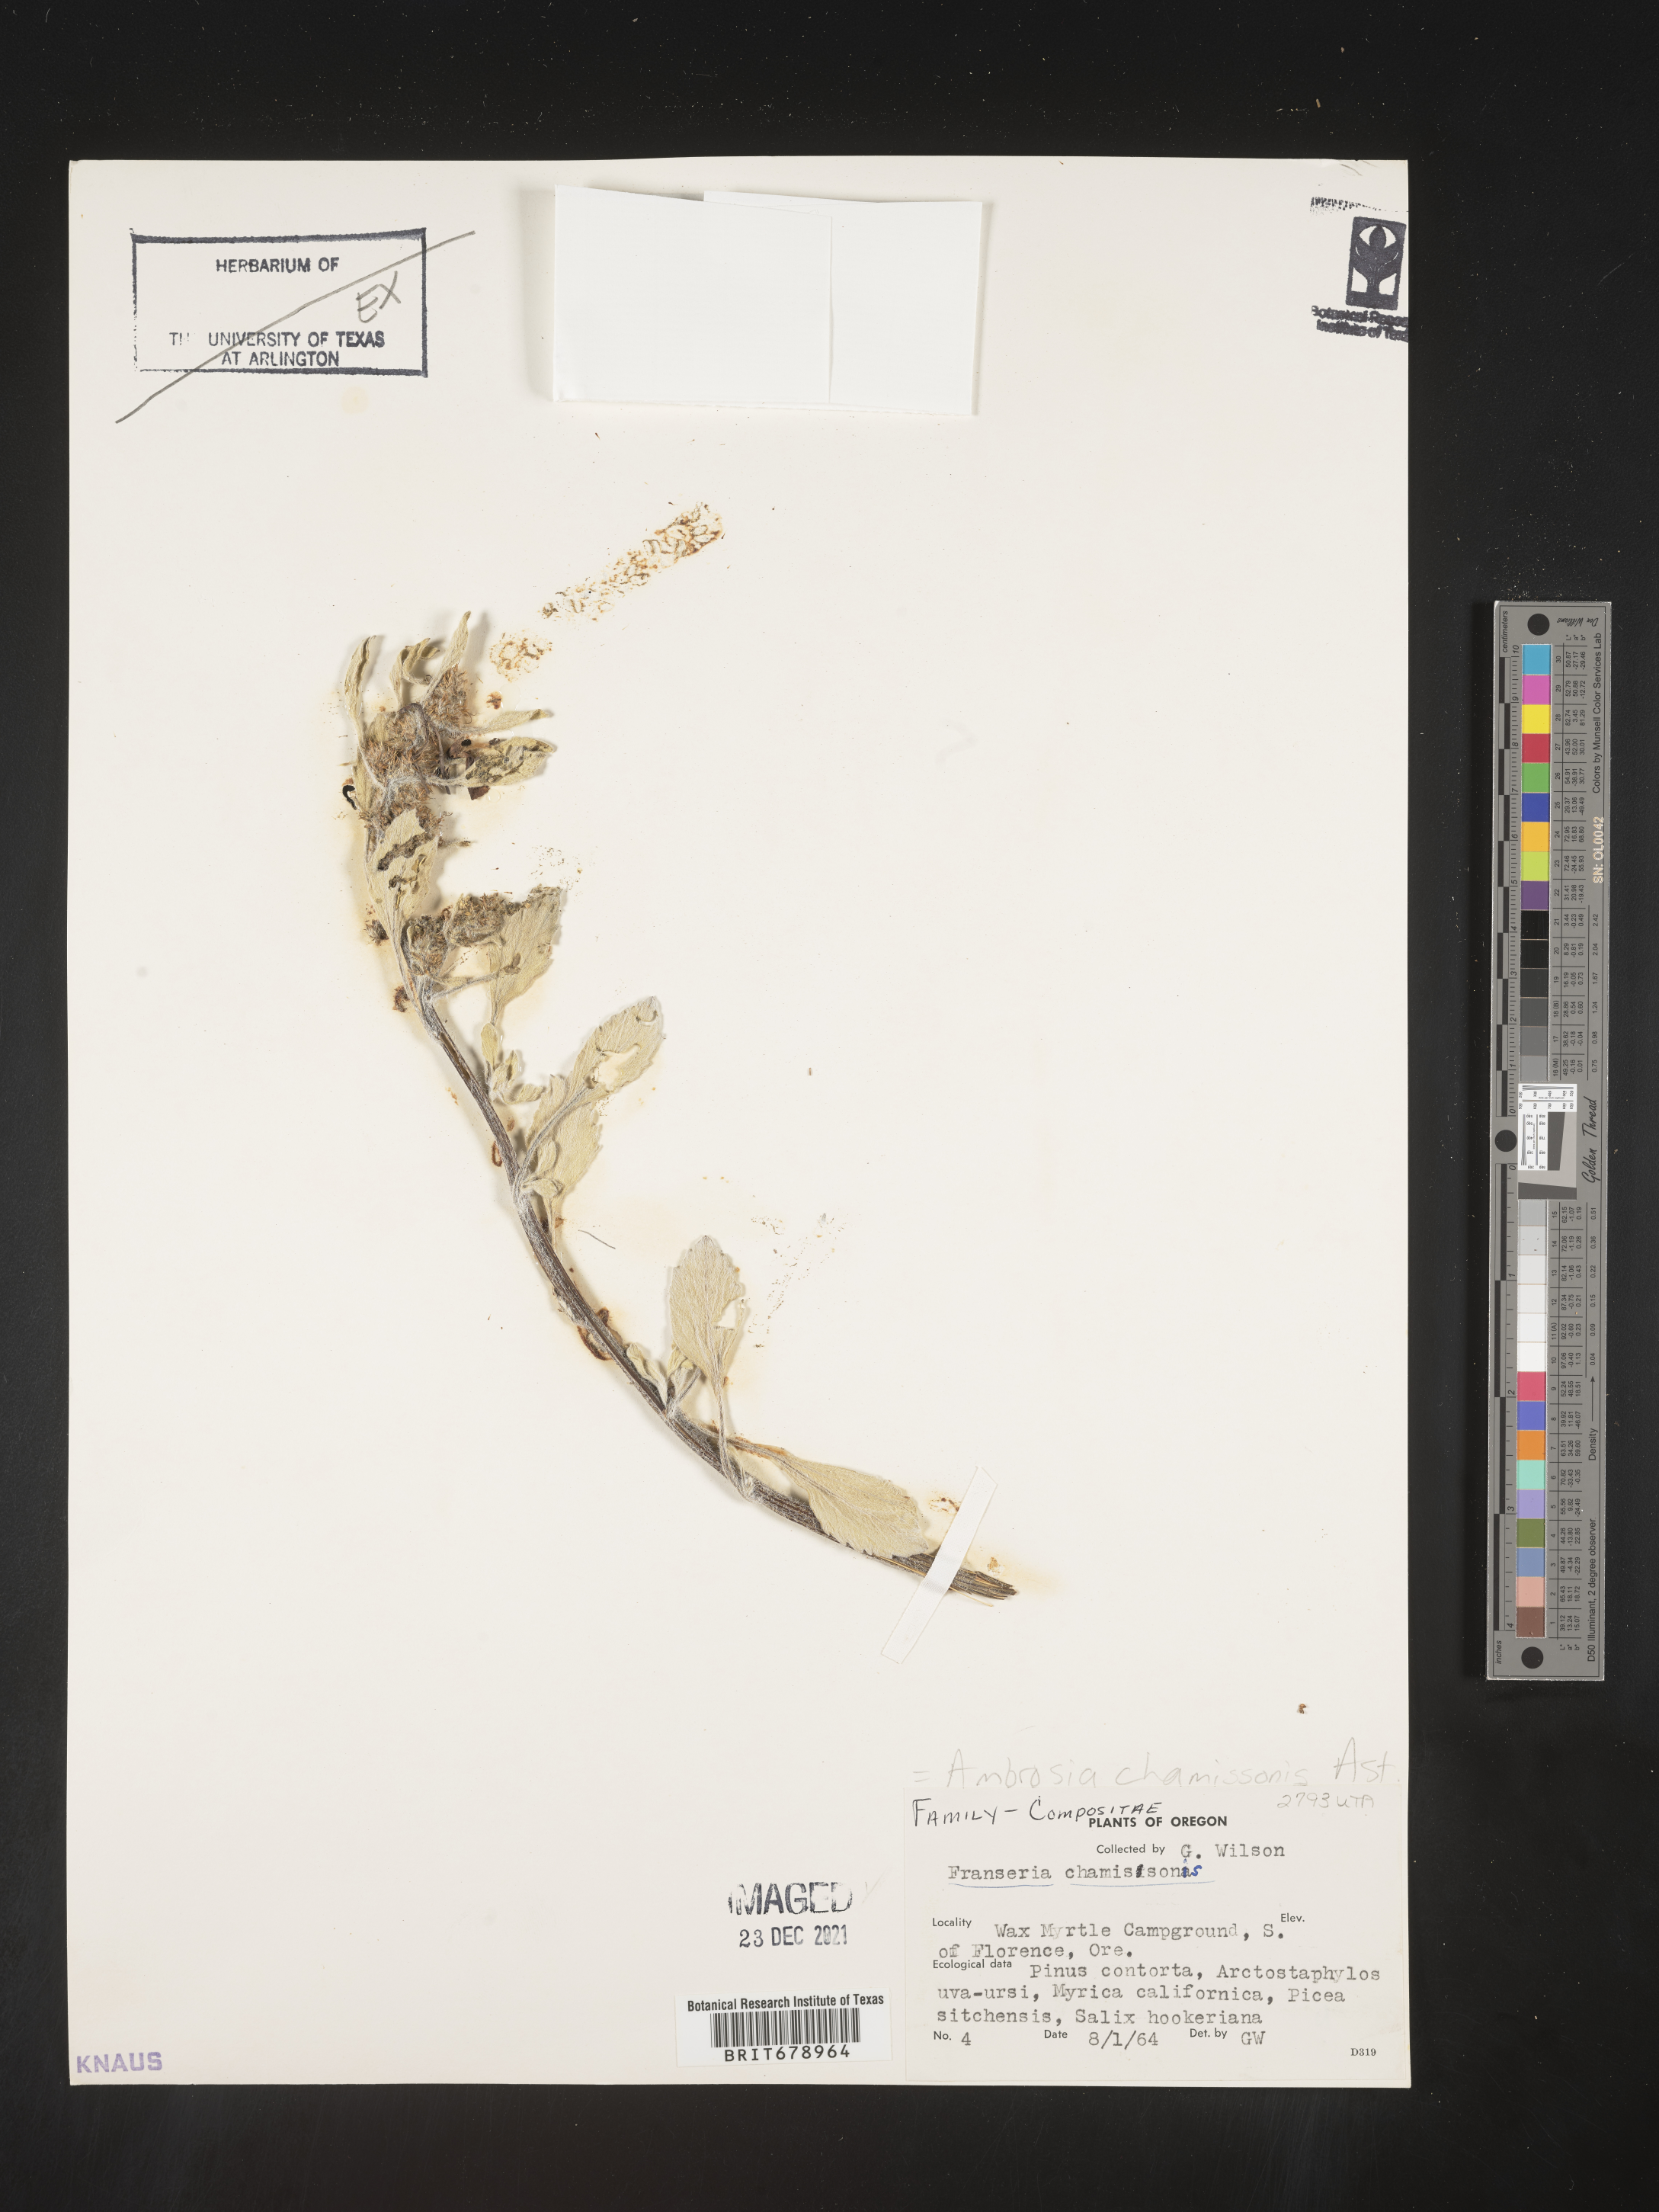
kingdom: Plantae
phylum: Tracheophyta
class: Magnoliopsida
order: Asterales
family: Asteraceae
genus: Ambrosia
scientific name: Ambrosia chamissonis
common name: Beachbur
